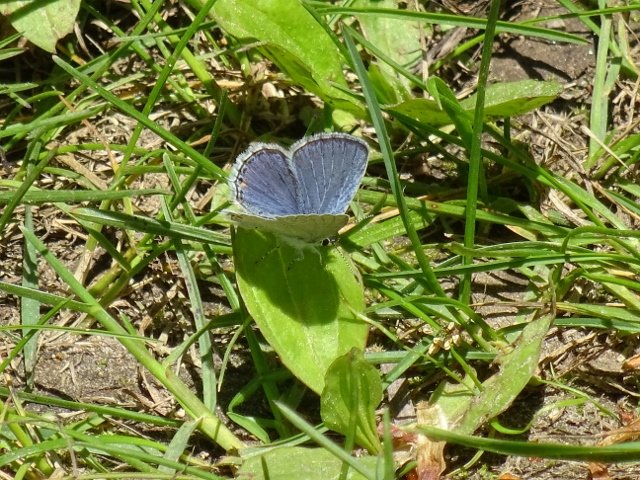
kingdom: Animalia
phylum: Arthropoda
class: Insecta
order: Lepidoptera
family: Lycaenidae
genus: Elkalyce
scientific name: Elkalyce comyntas
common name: Eastern Tailed-Blue
